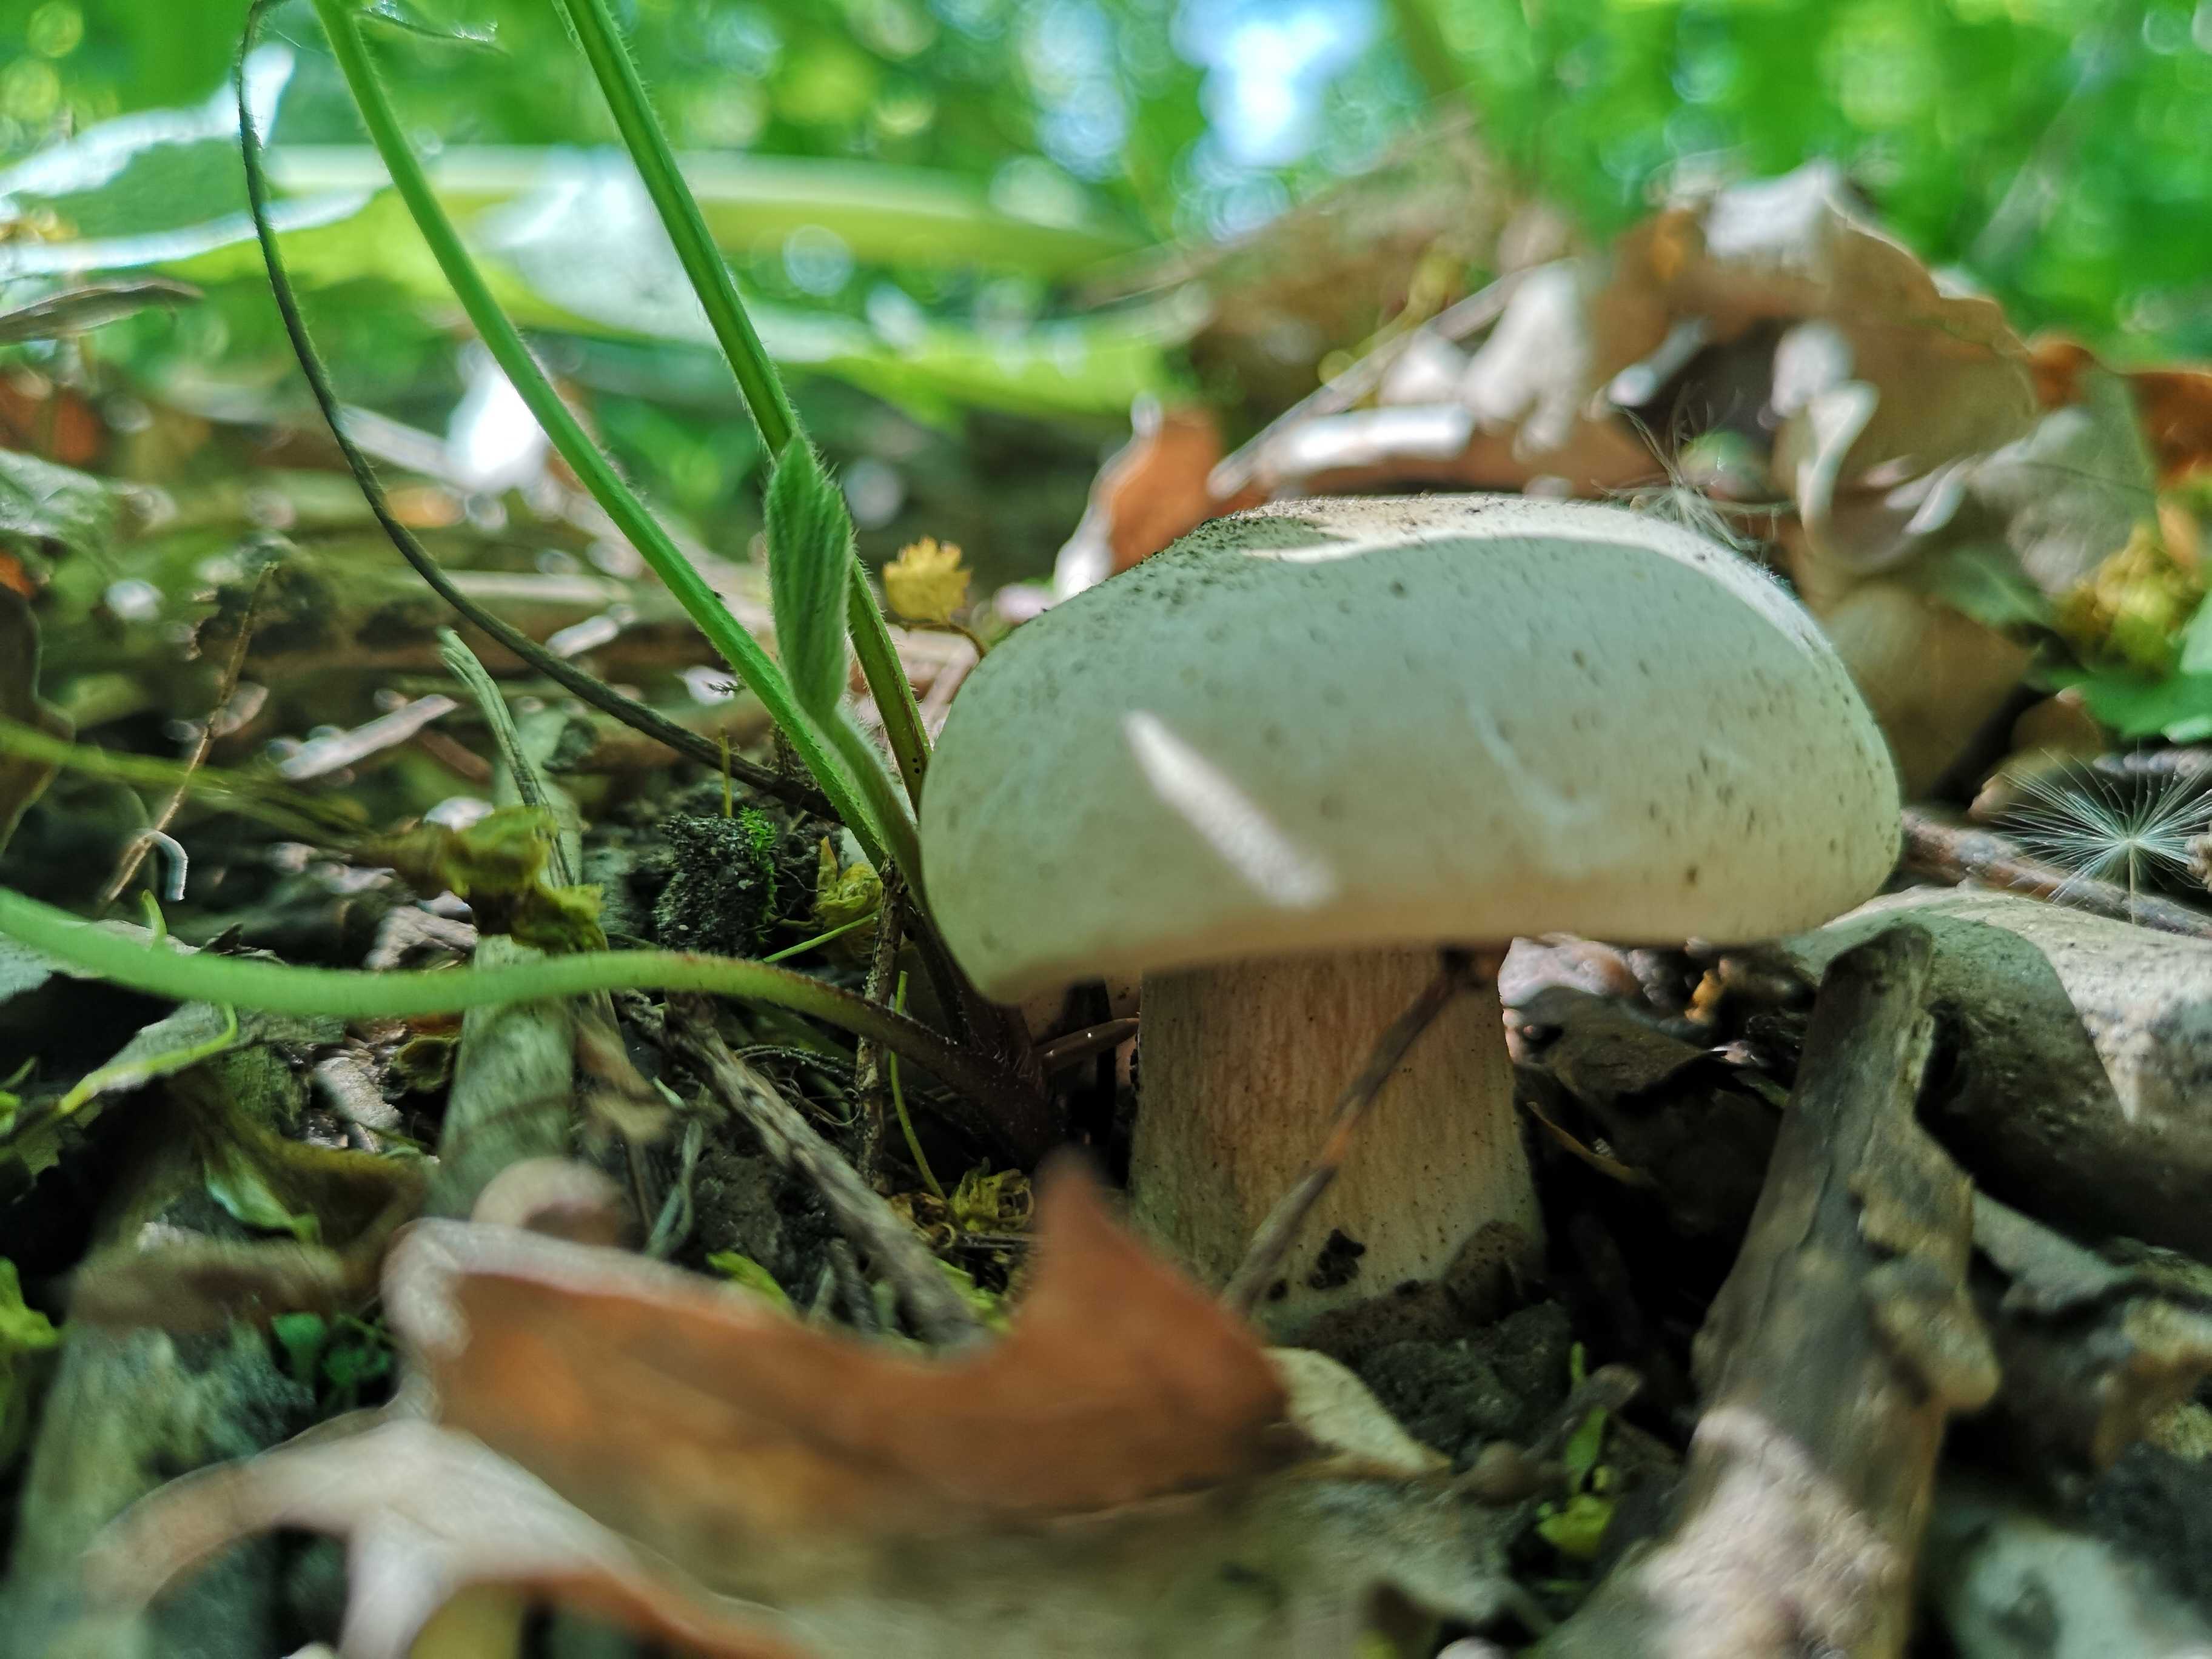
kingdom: Fungi
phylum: Basidiomycota
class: Agaricomycetes
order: Agaricales
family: Lyophyllaceae
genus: Calocybe
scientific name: Calocybe gambosa
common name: vårmusseron
